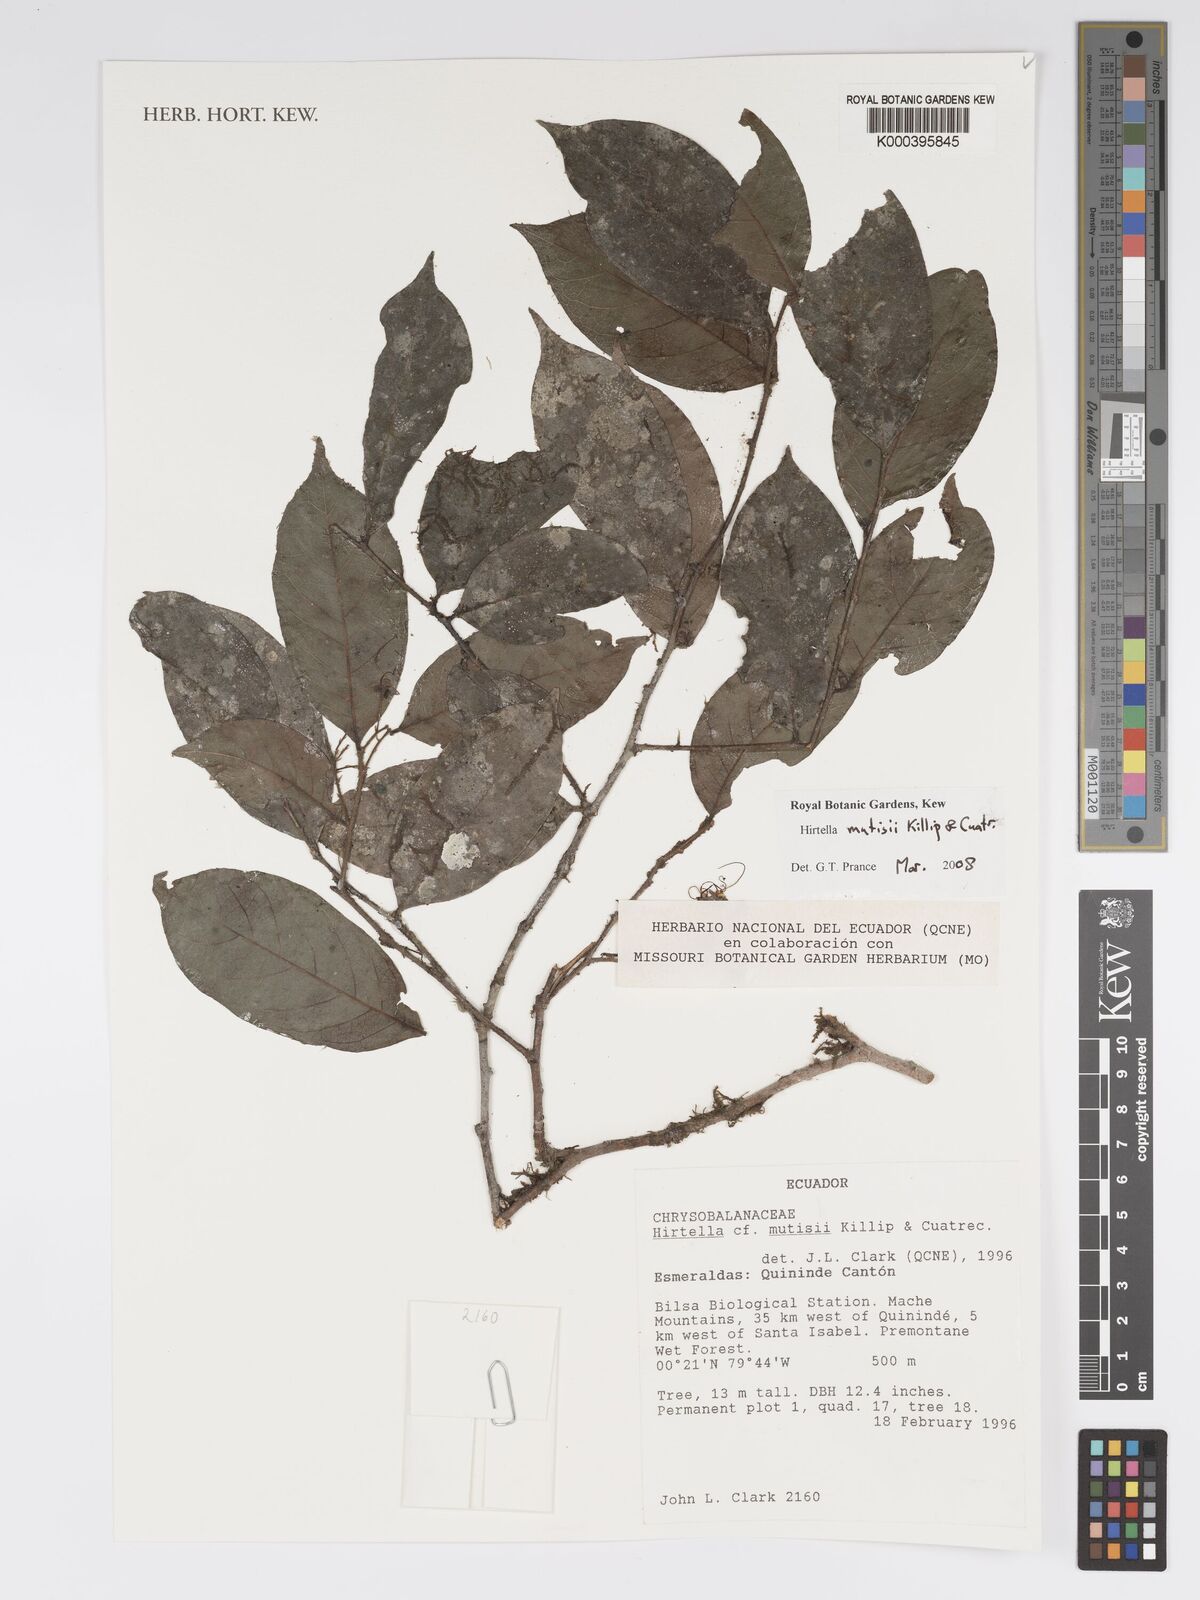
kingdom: Plantae
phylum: Tracheophyta
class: Magnoliopsida
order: Malpighiales
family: Chrysobalanaceae
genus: Hirtella
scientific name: Hirtella mutisii
